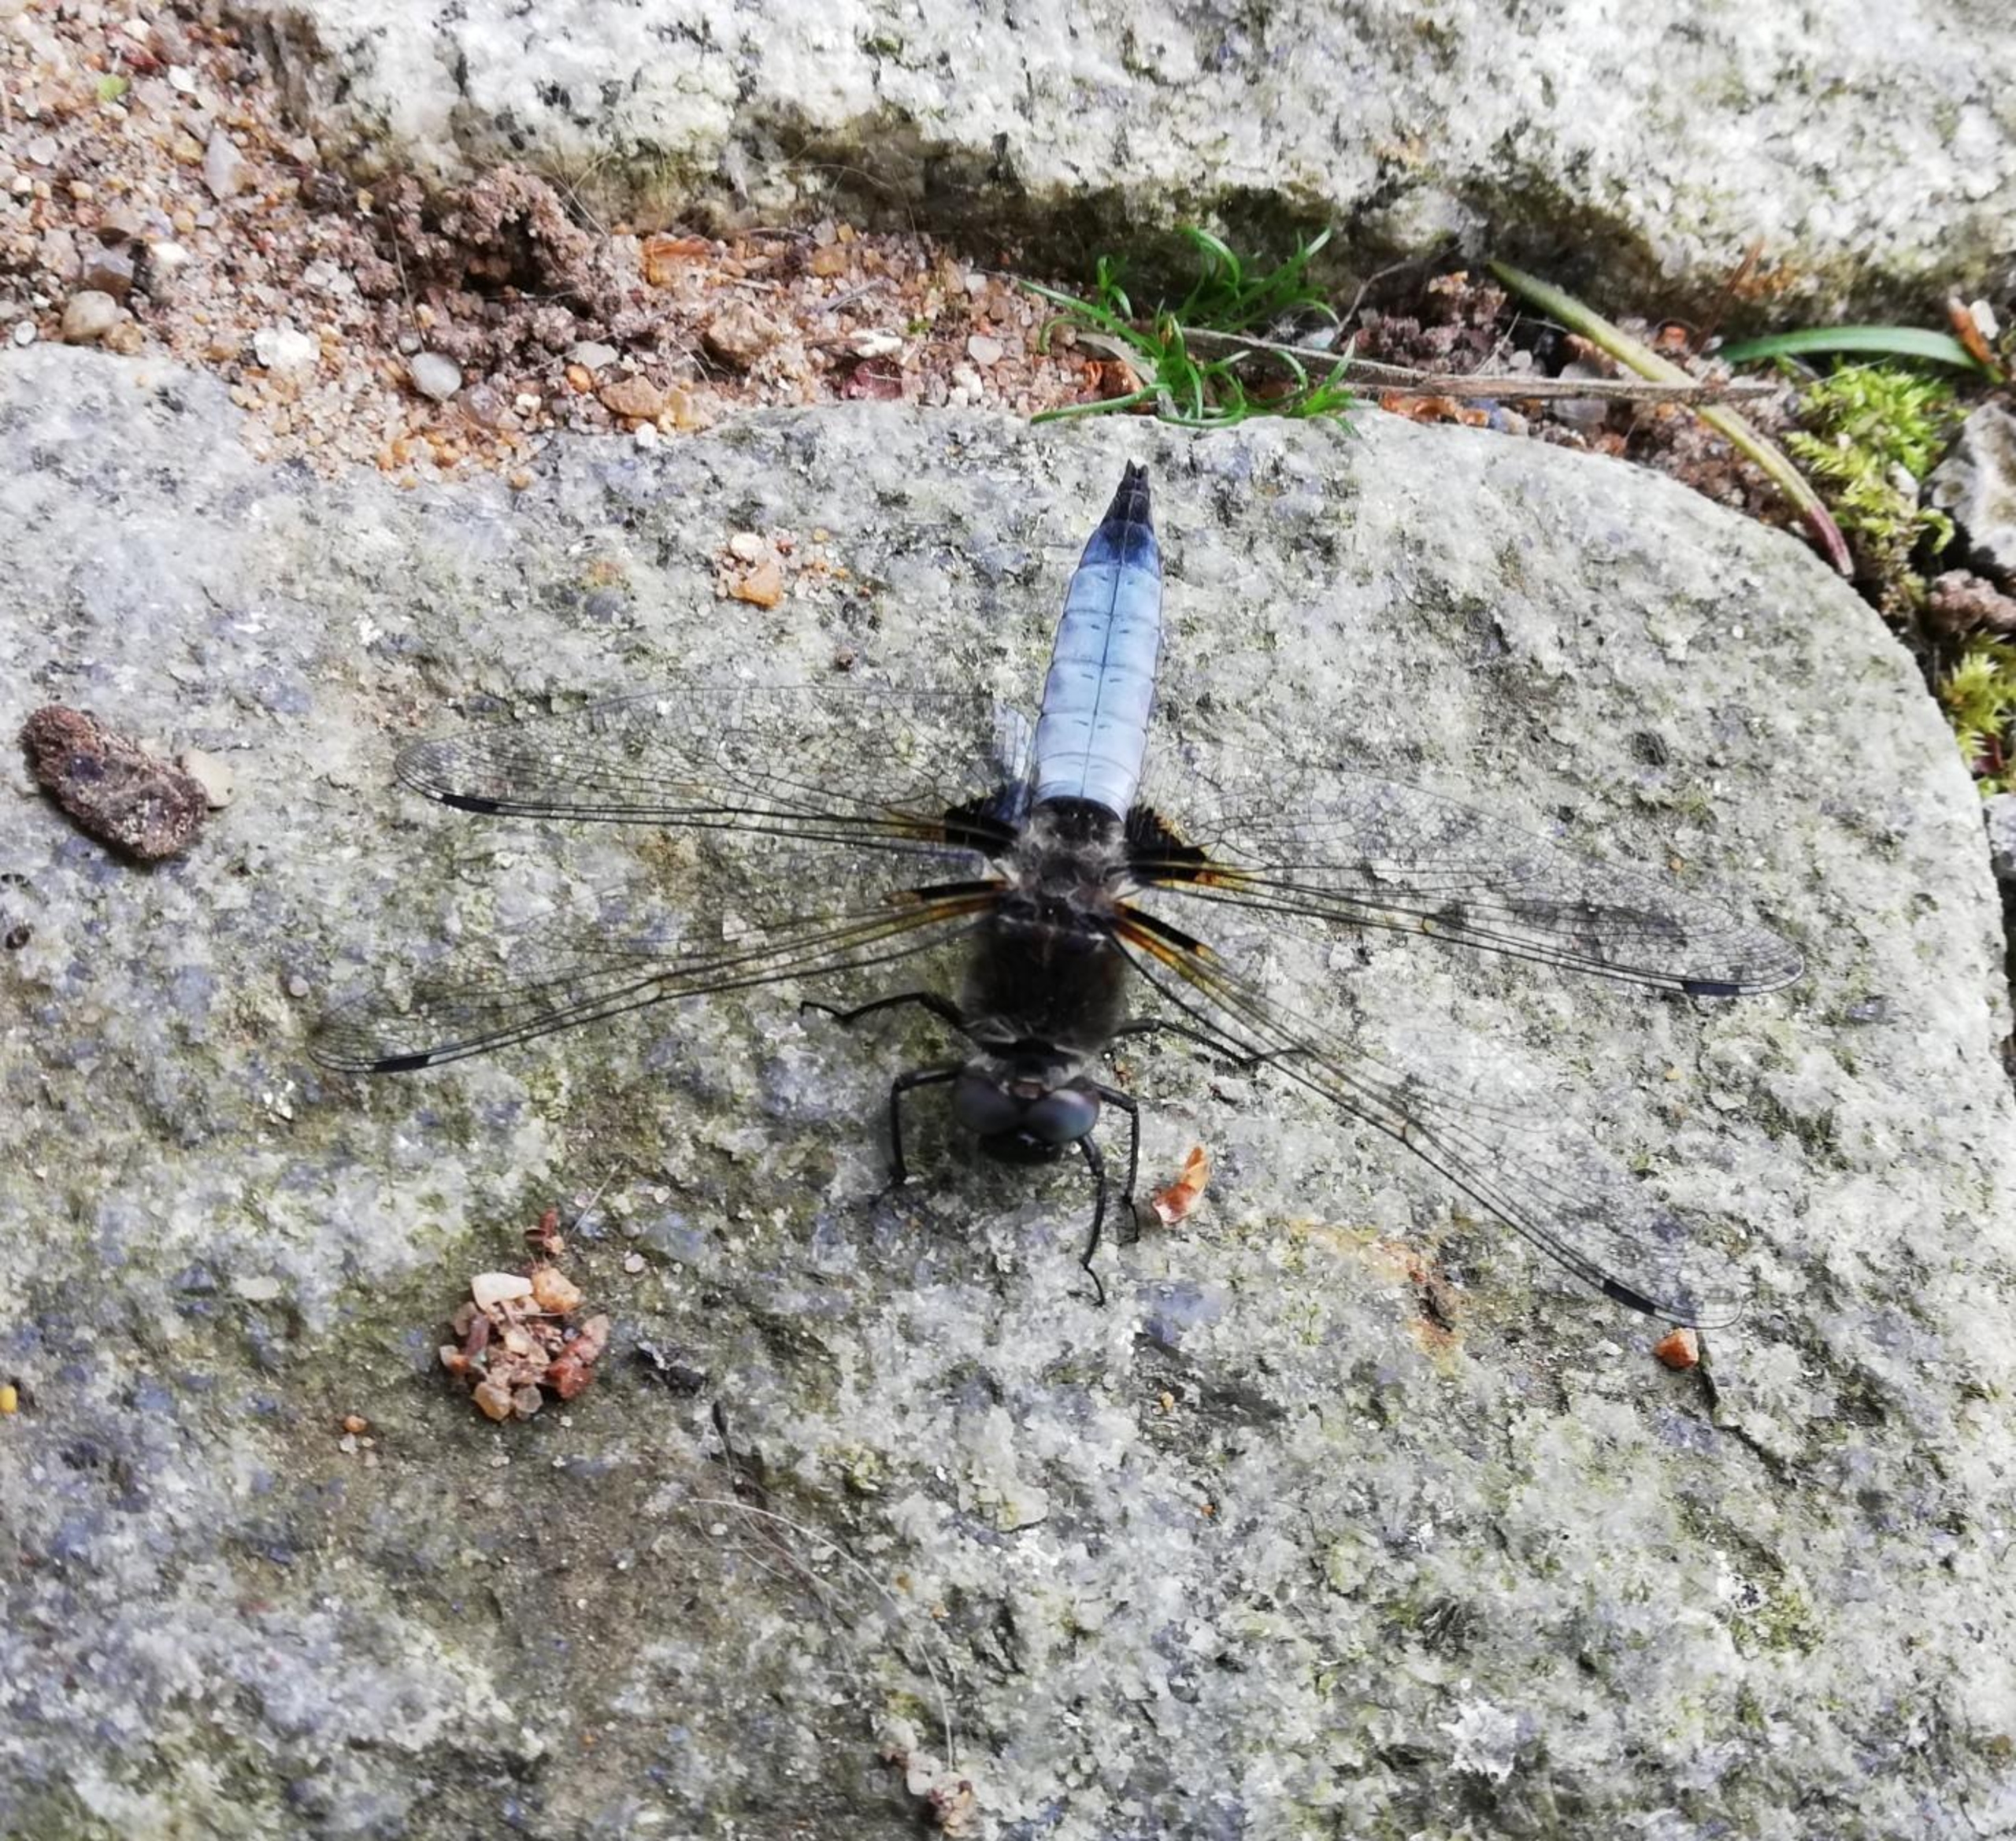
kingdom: Animalia
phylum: Arthropoda
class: Insecta
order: Odonata
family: Libellulidae
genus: Libellula
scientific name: Libellula fulva
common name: Spidsplettet libel
